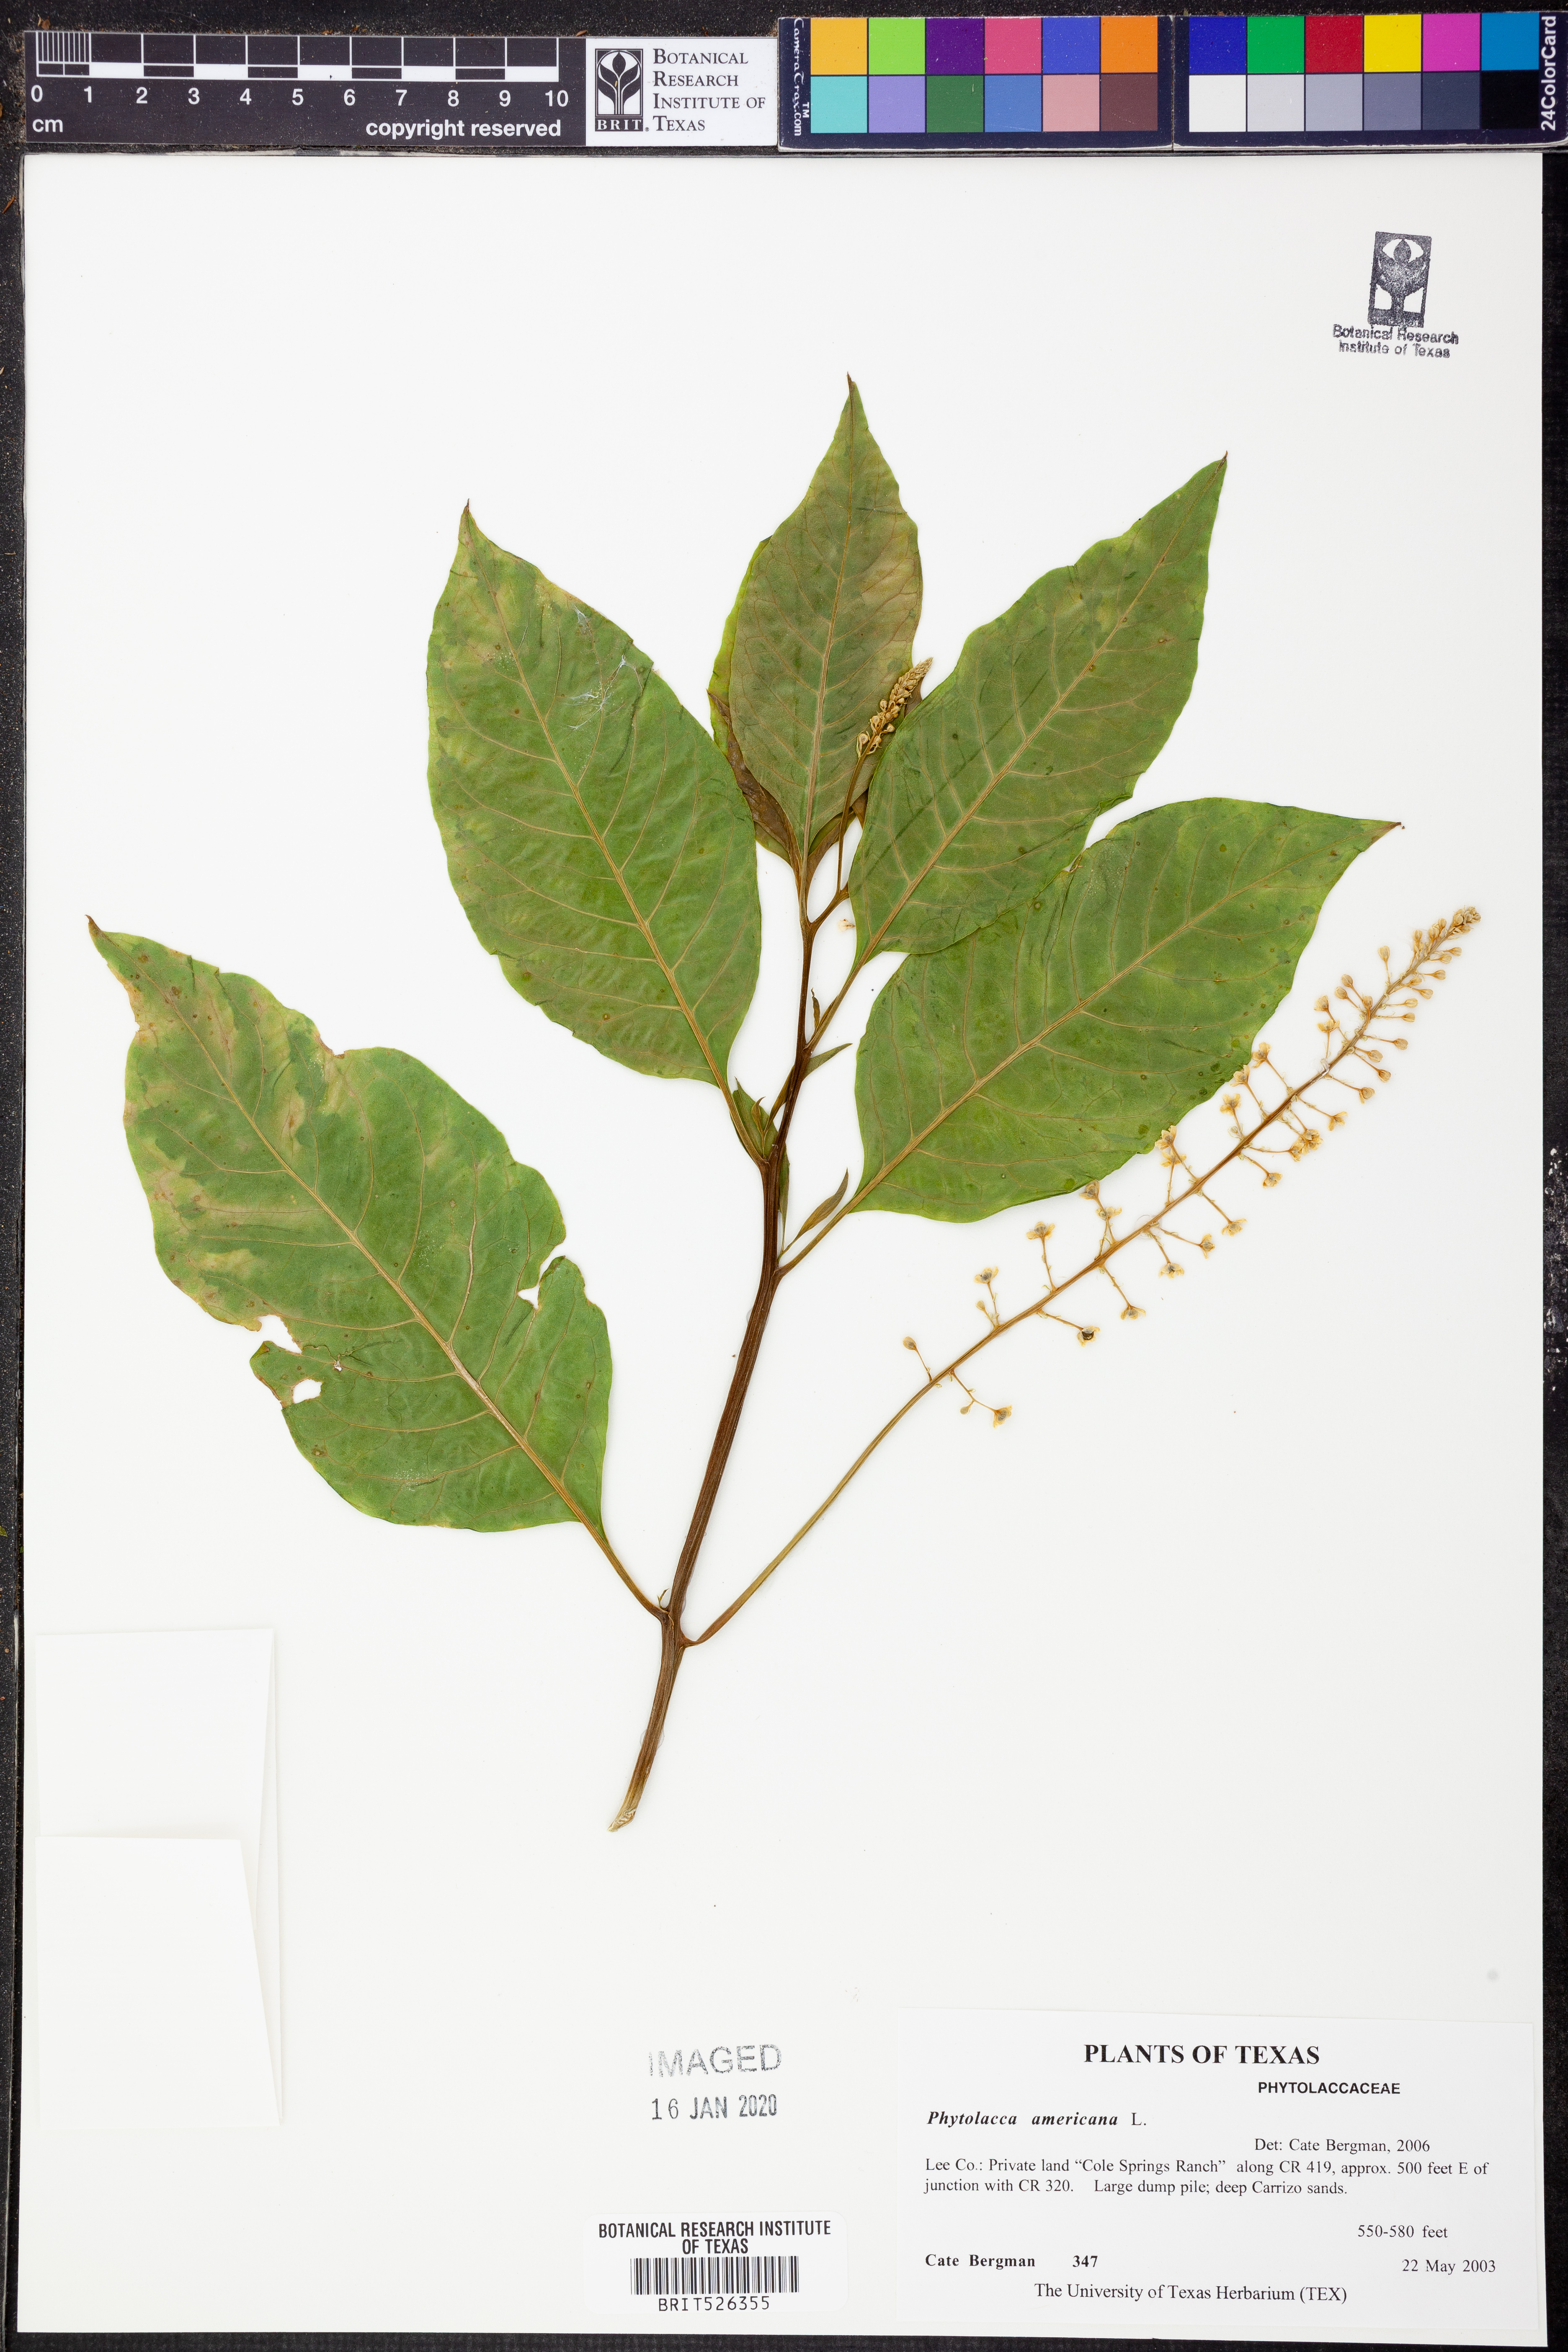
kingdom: Plantae
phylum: Tracheophyta
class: Magnoliopsida
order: Caryophyllales
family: Phytolaccaceae
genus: Phytolacca
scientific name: Phytolacca americana
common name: American pokeweed
